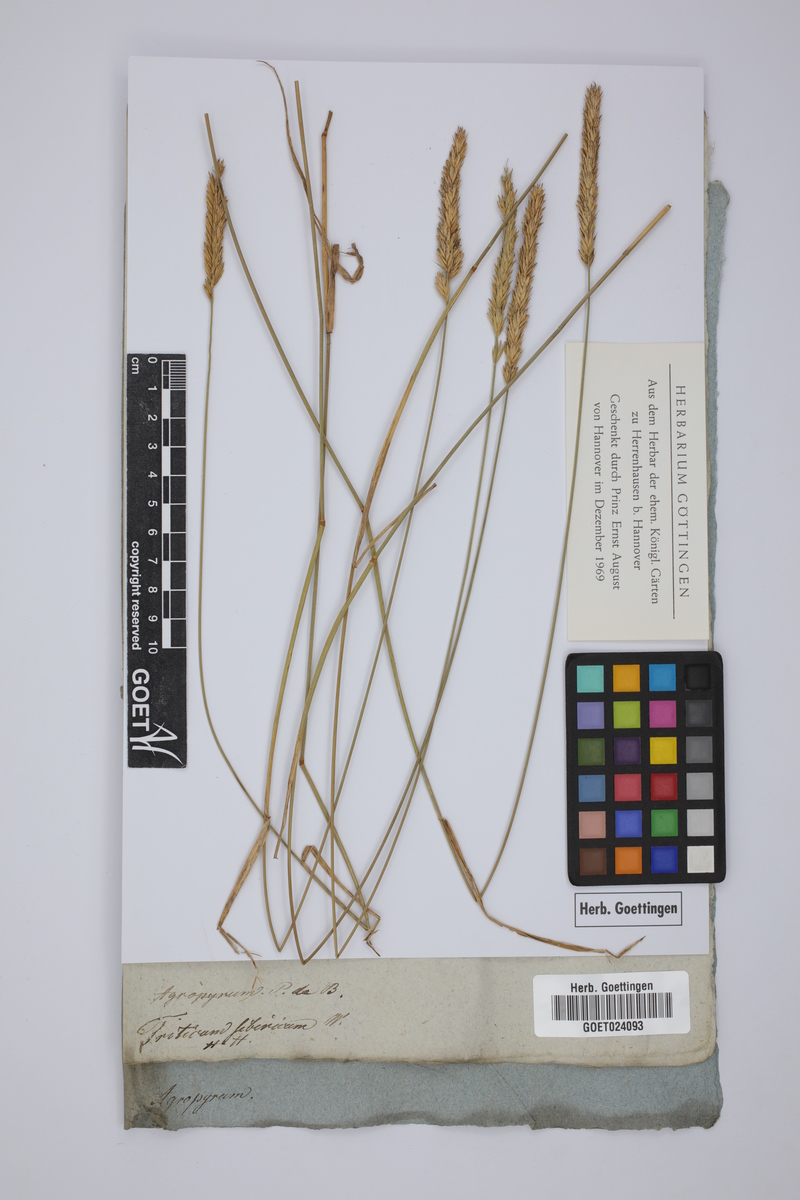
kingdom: Plantae
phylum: Tracheophyta
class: Liliopsida
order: Poales
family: Poaceae
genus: Agropyron
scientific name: Agropyron fragile
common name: Siberian wheatgrass
